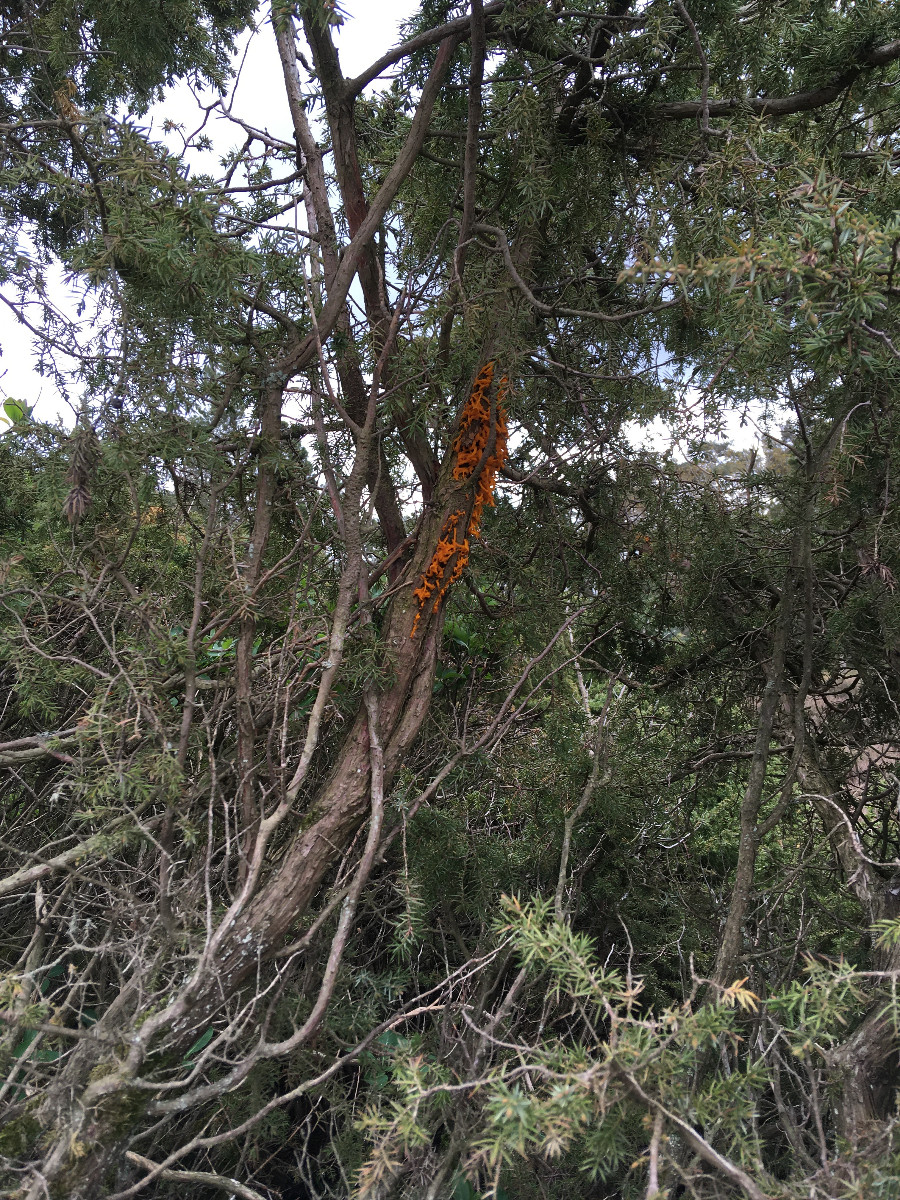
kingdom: Fungi
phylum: Basidiomycota
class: Pucciniomycetes
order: Pucciniales
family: Gymnosporangiaceae
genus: Gymnosporangium
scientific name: Gymnosporangium clavariiforme
